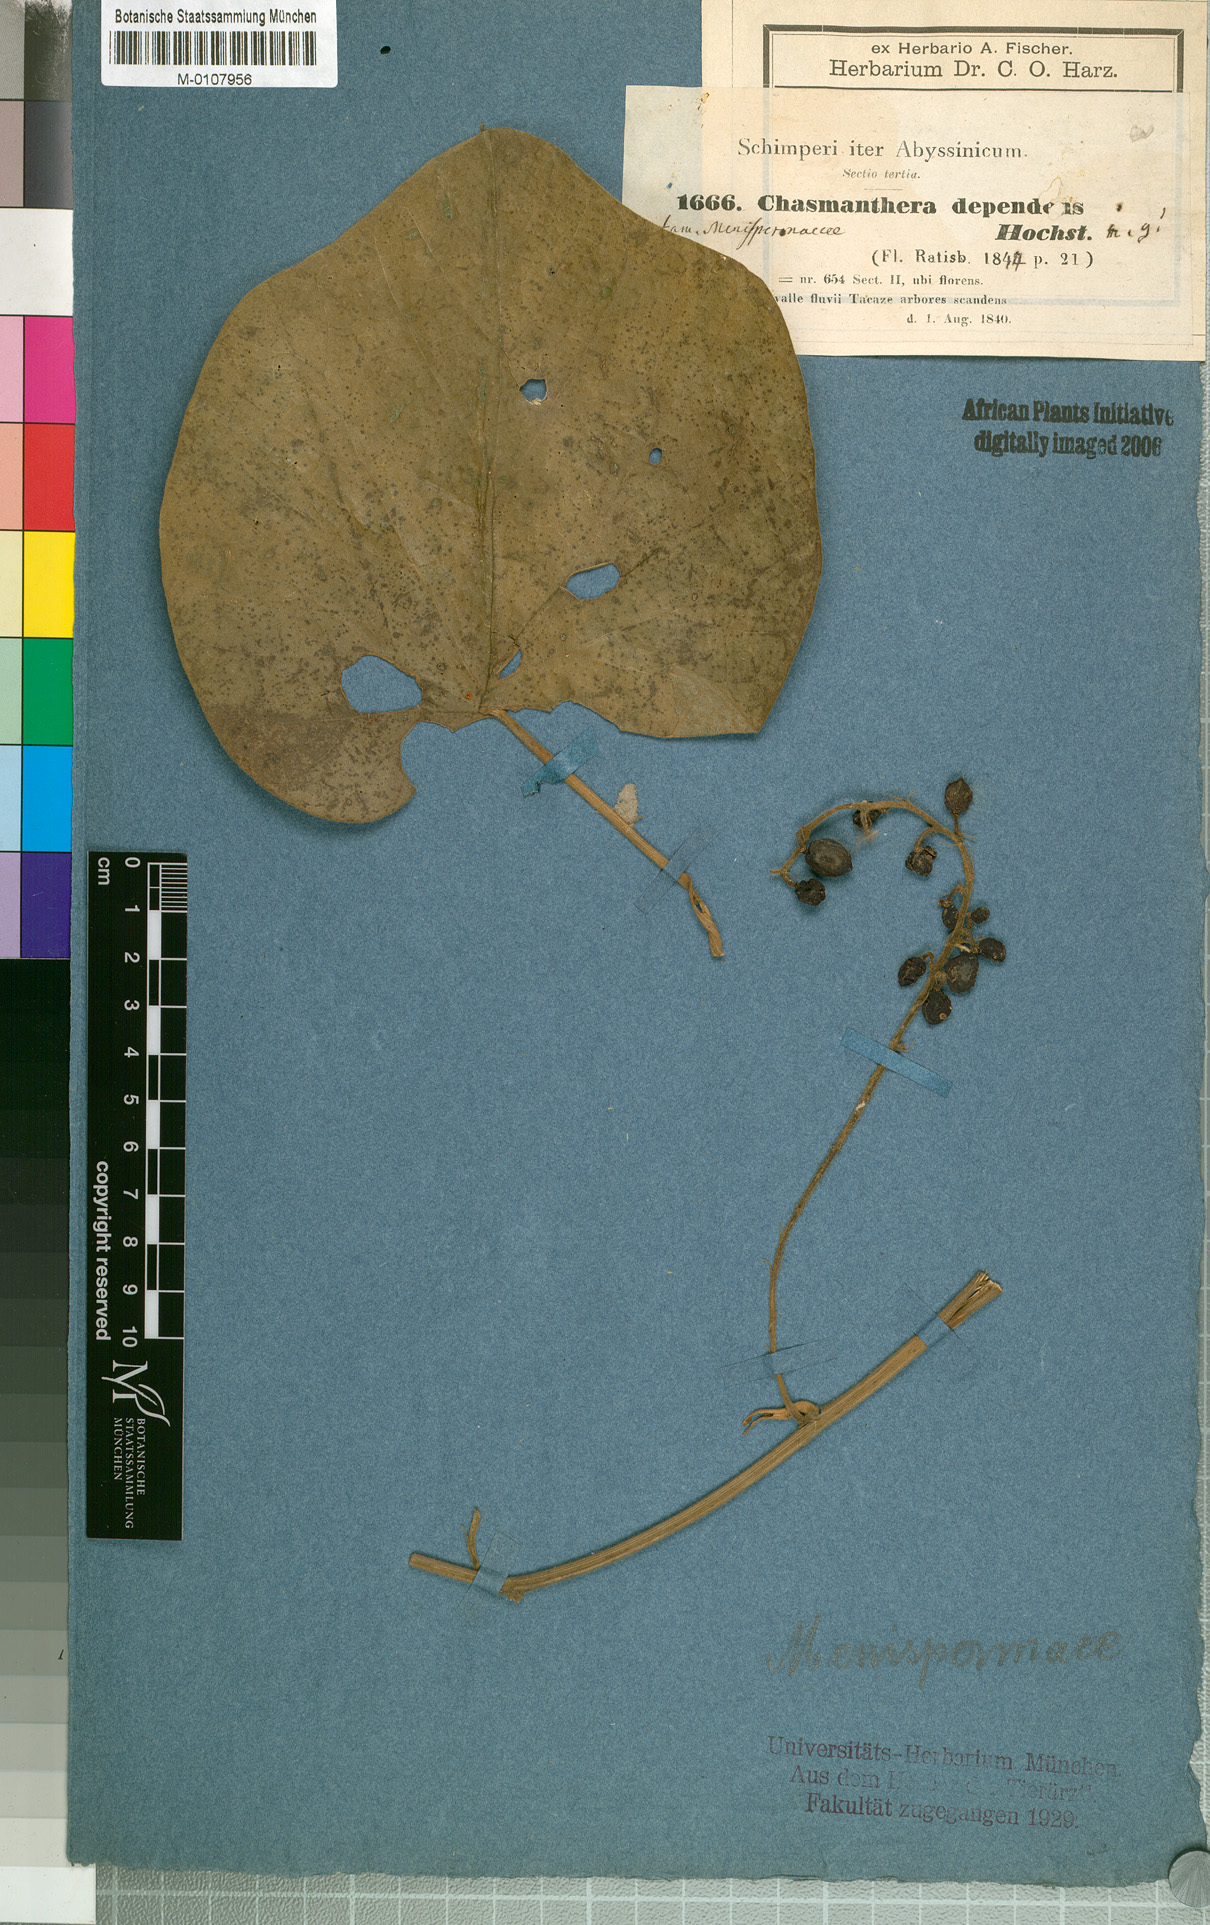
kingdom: Plantae
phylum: Tracheophyta
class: Magnoliopsida
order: Ranunculales
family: Menispermaceae
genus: Chasmanthera
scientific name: Chasmanthera dependens
